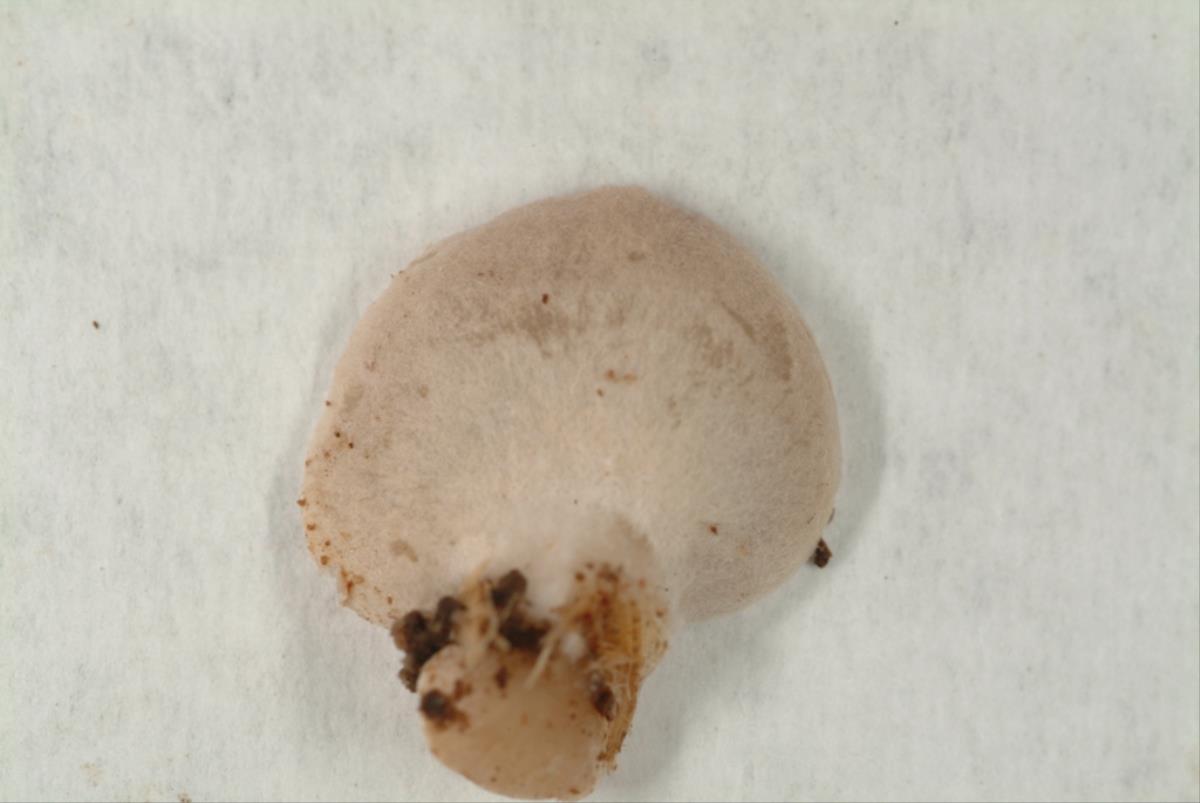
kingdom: Fungi
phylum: Basidiomycota
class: Agaricomycetes
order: Agaricales
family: Strophariaceae
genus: Melanotus
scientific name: Melanotus communis
